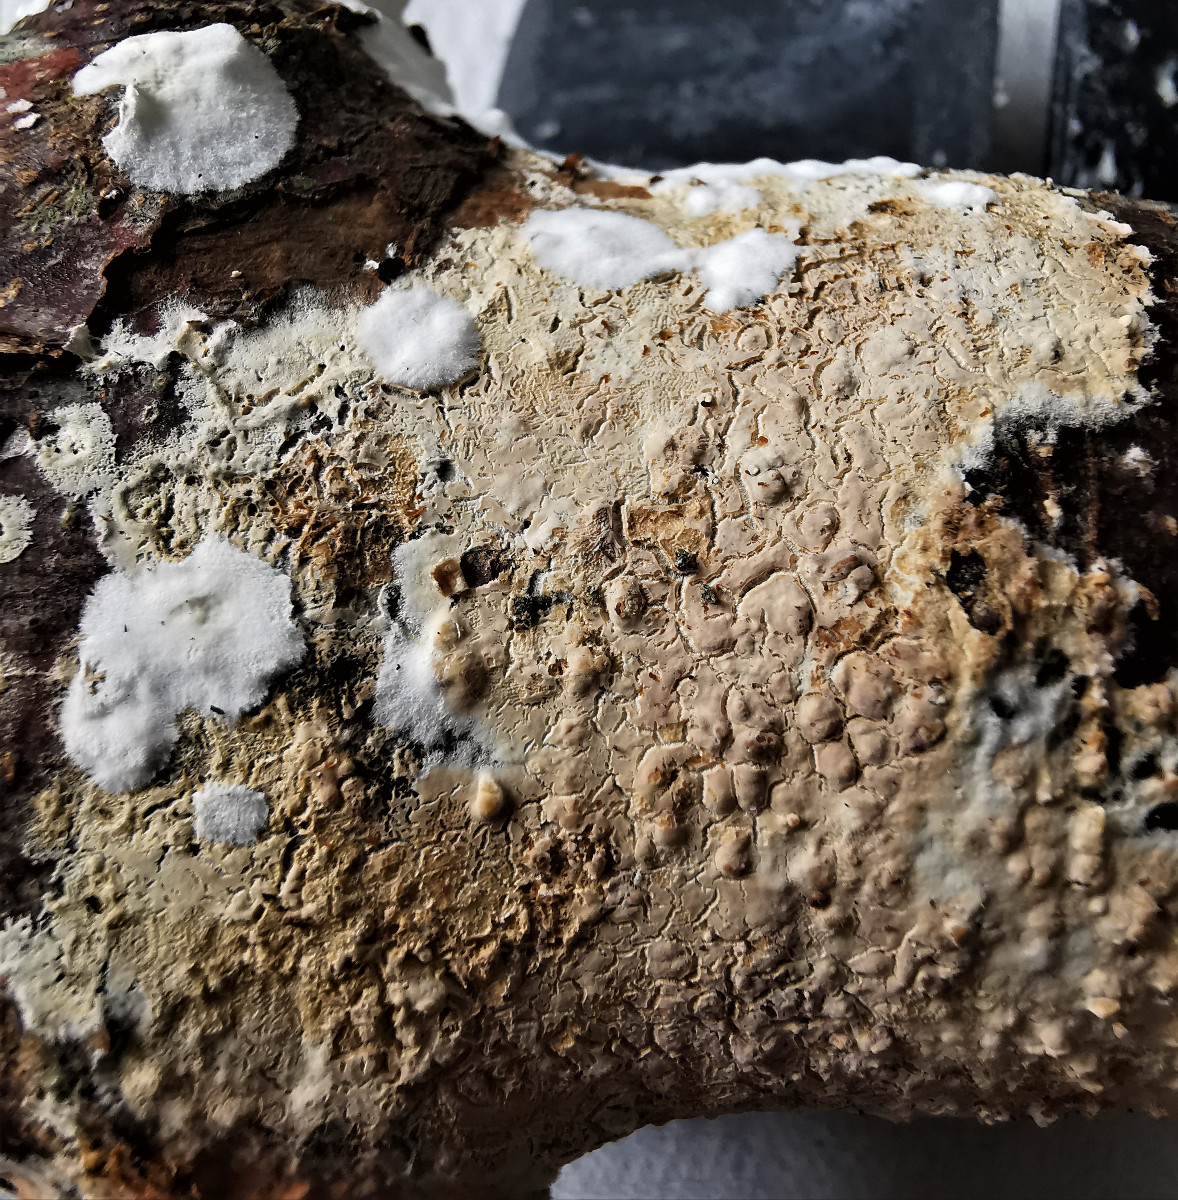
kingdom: Fungi
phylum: Basidiomycota
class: Agaricomycetes
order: Agaricales
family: Physalacriaceae
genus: Cylindrobasidium
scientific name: Cylindrobasidium evolvens
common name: sprækkehinde
